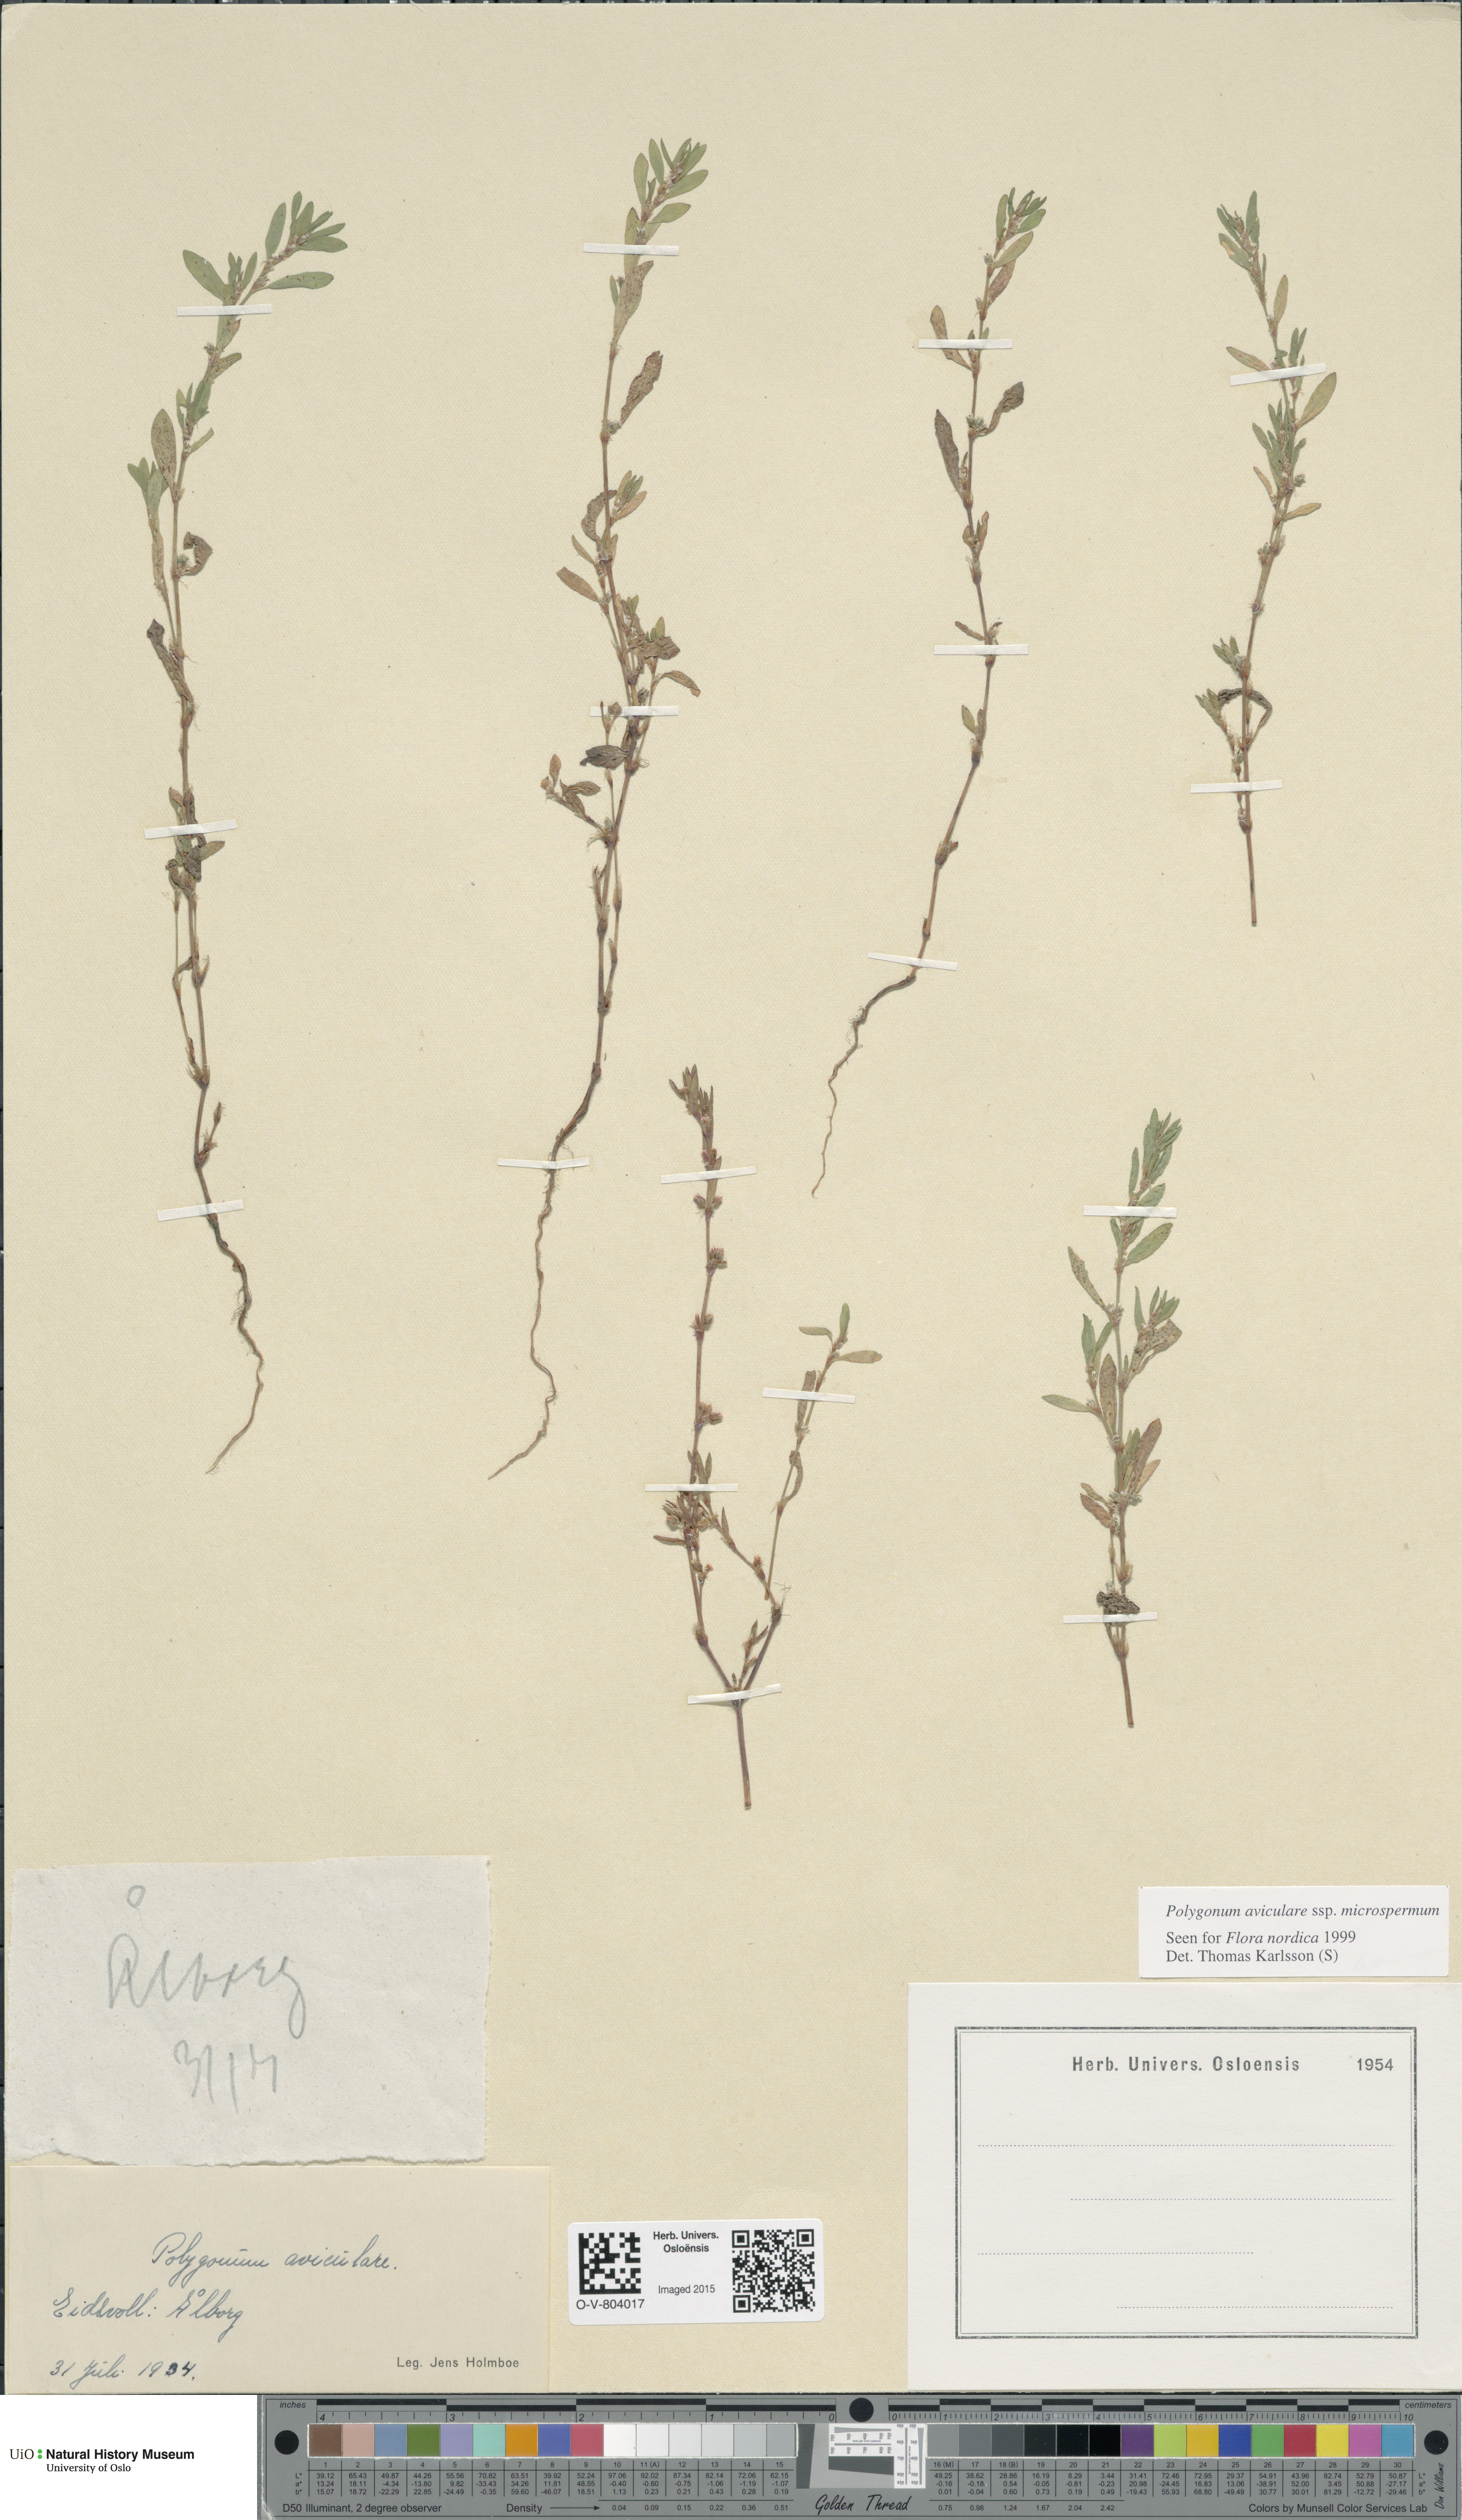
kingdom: Plantae
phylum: Tracheophyta
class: Magnoliopsida
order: Caryophyllales
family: Polygonaceae
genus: Polygonum
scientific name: Polygonum arenastrum
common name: Equal-leaved knotgrass
